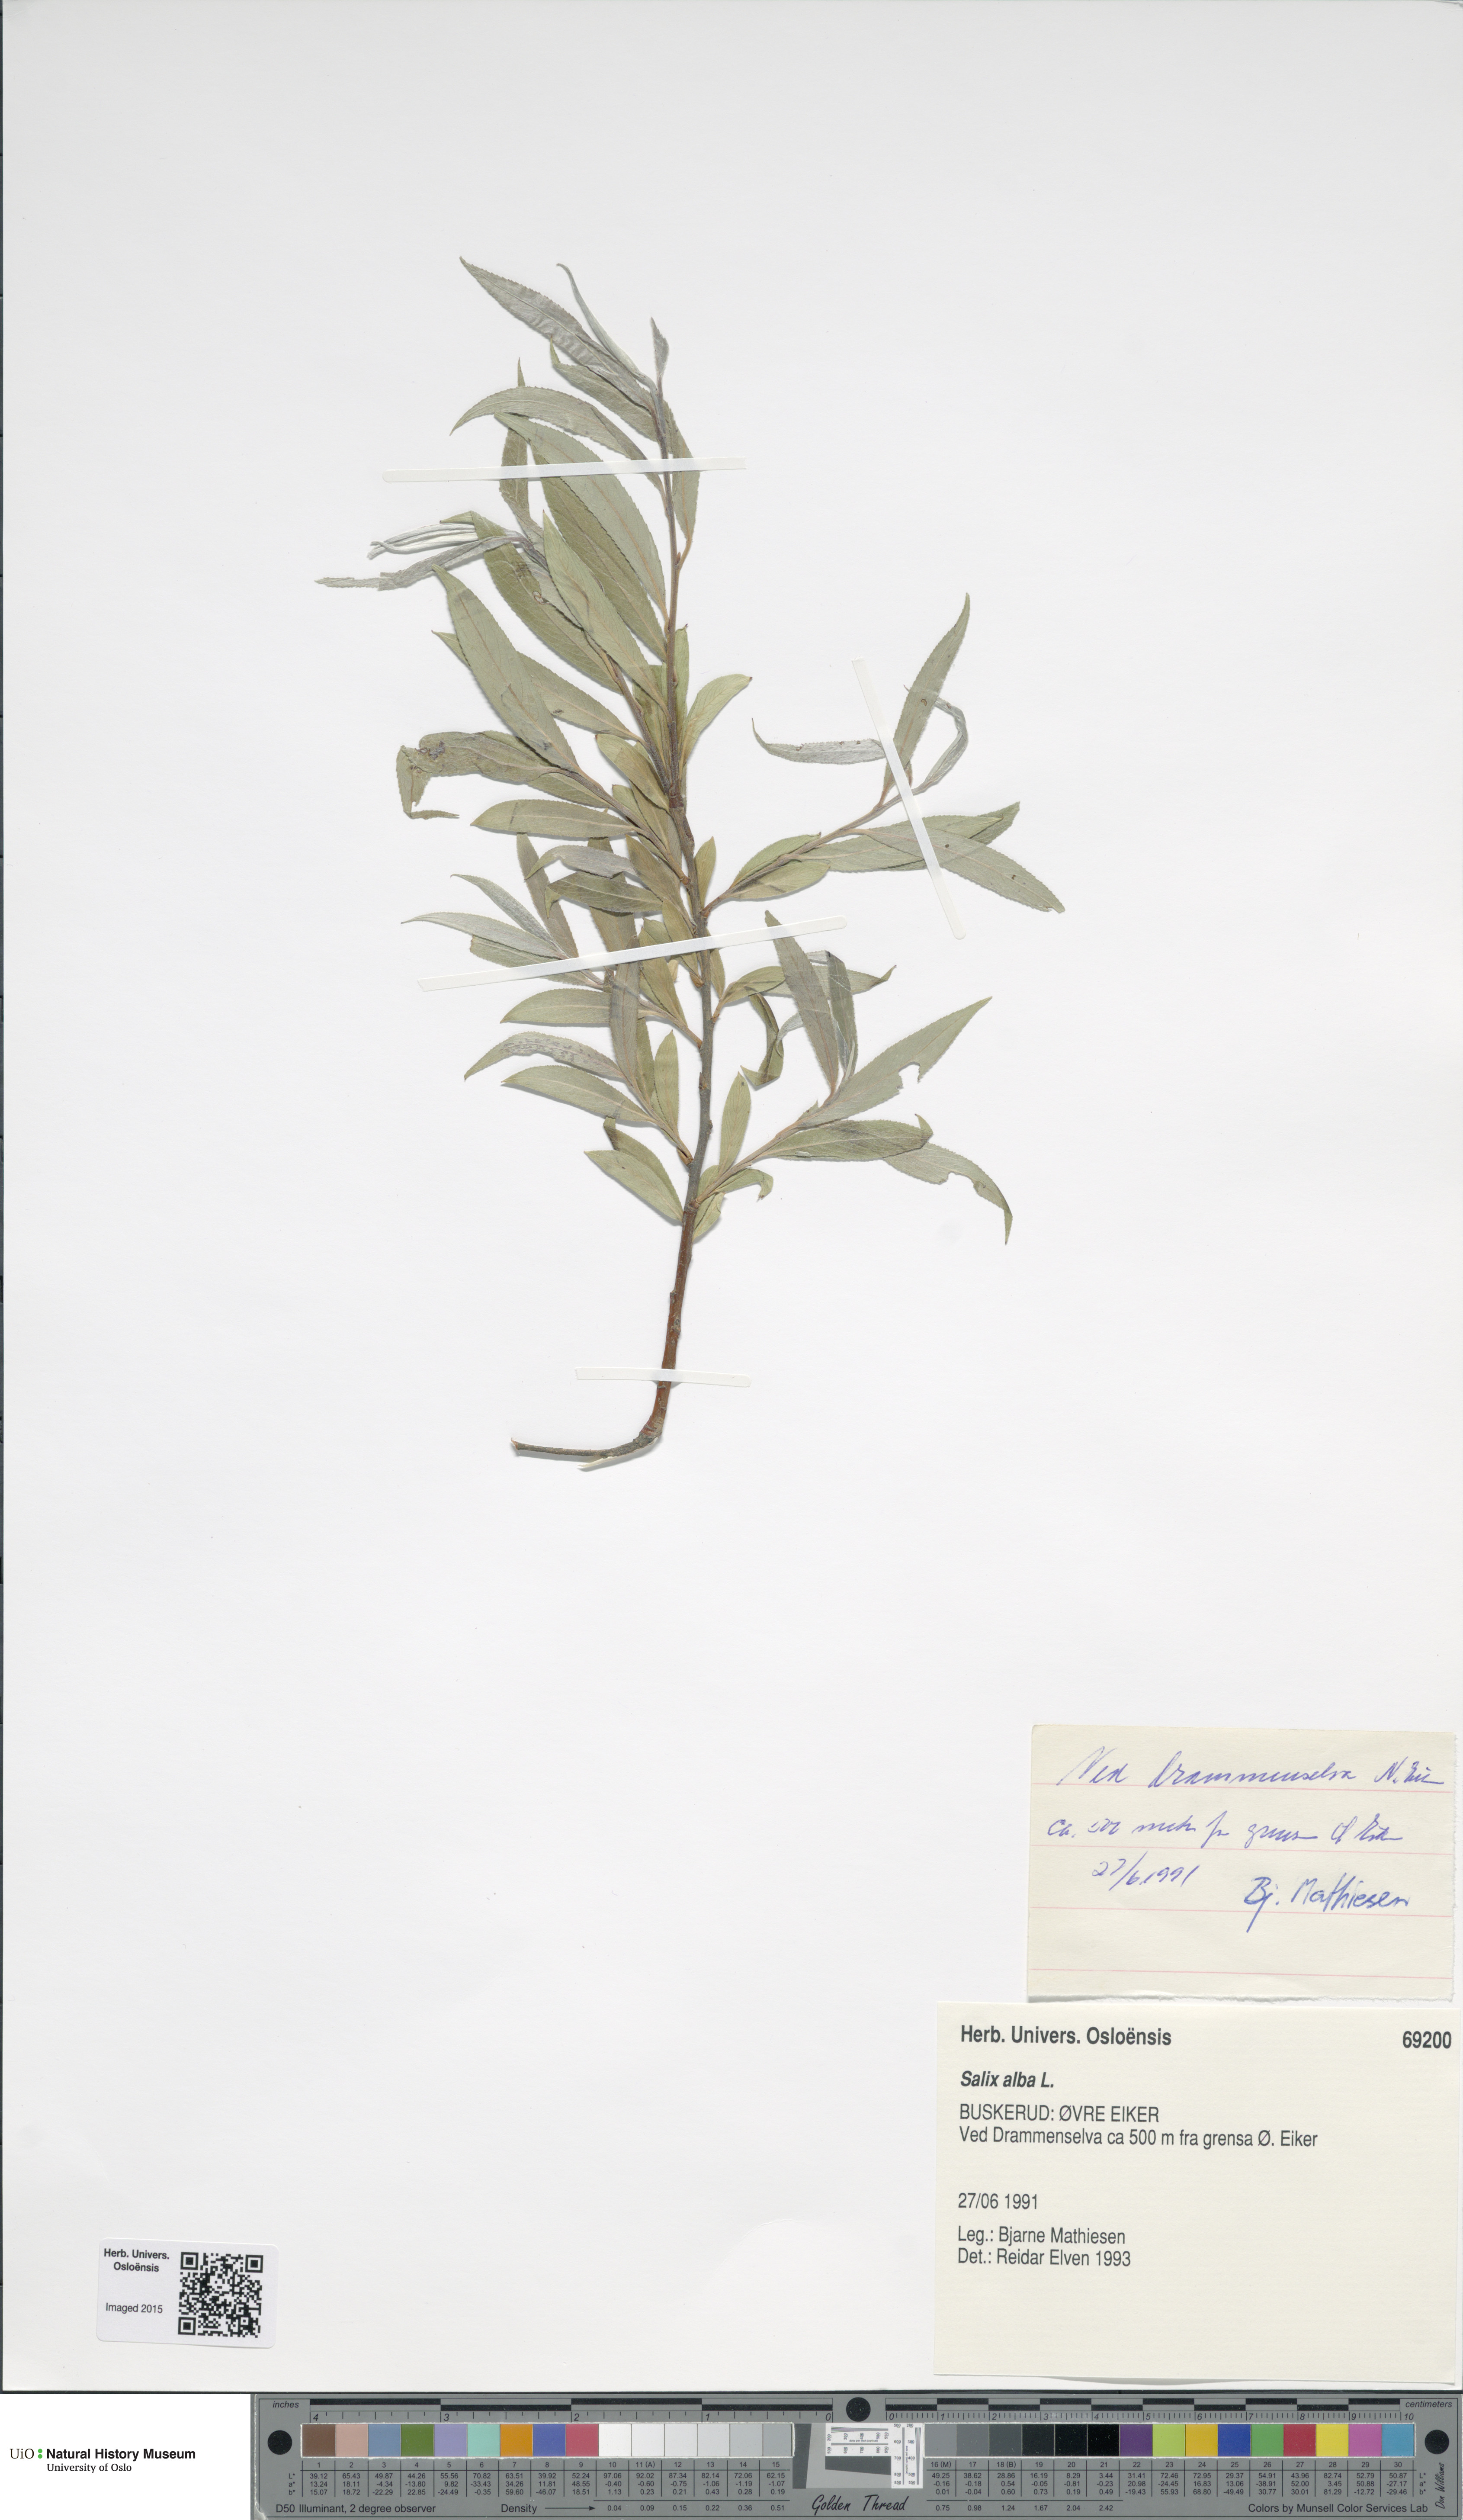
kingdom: Plantae
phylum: Tracheophyta
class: Magnoliopsida
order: Malpighiales
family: Salicaceae
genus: Salix
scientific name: Salix alba
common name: White willow
